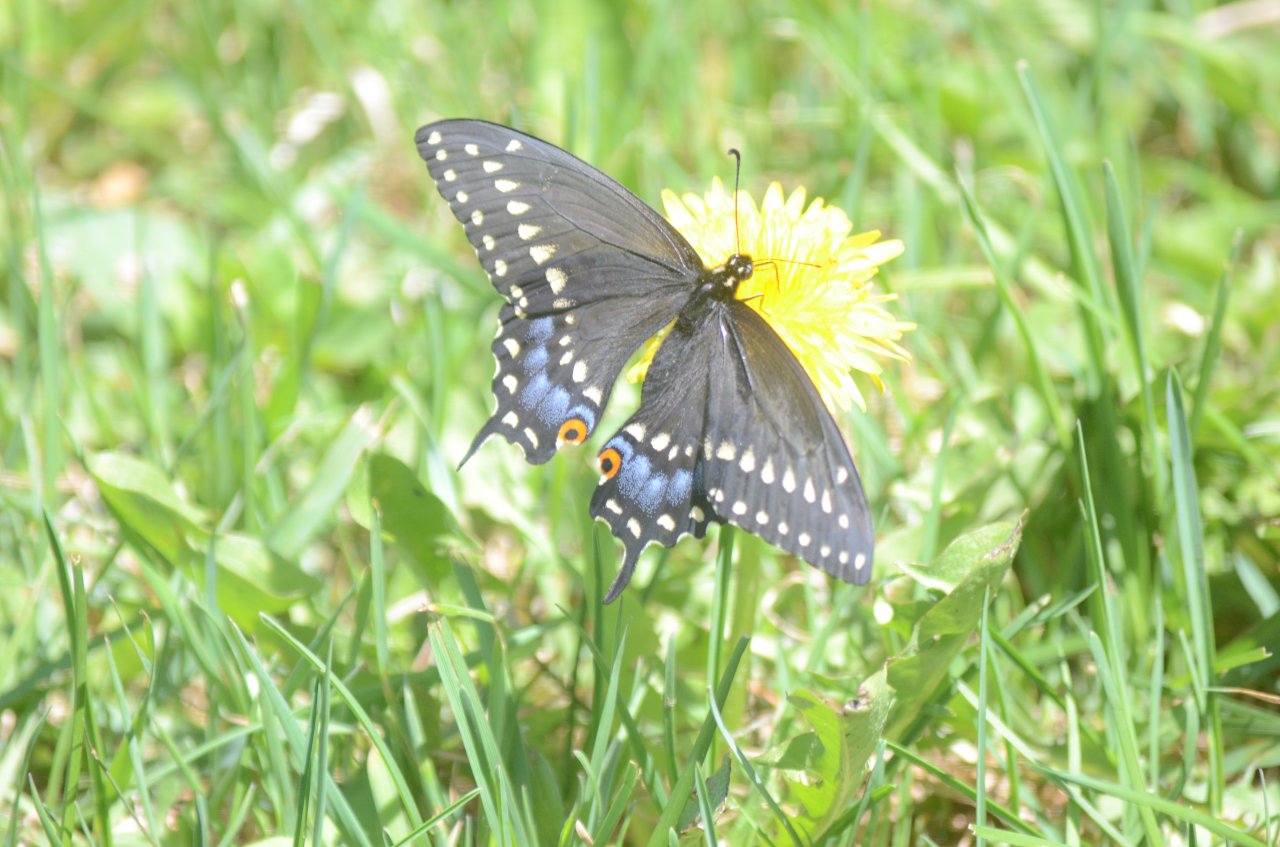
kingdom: Animalia
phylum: Arthropoda
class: Insecta
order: Lepidoptera
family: Papilionidae
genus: Papilio
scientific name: Papilio polyxenes
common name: Black Swallowtail
